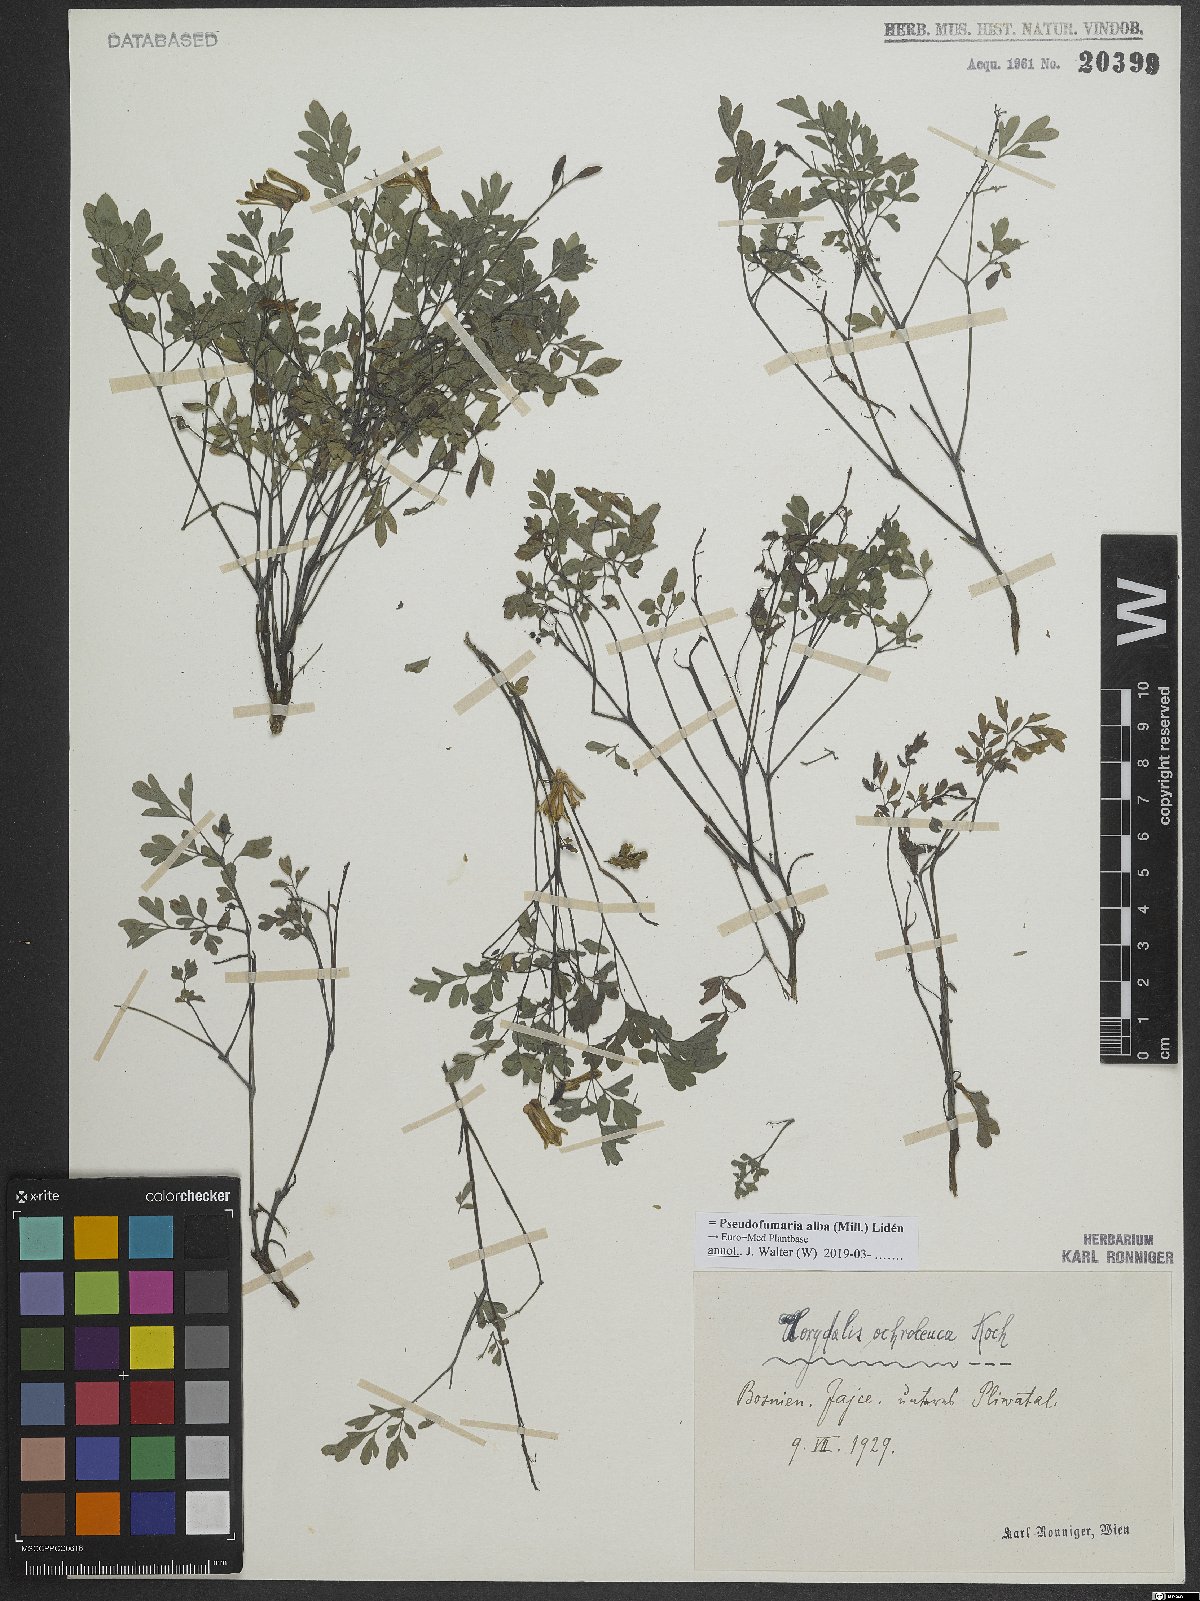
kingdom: Plantae
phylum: Tracheophyta
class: Magnoliopsida
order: Ranunculales
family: Papaveraceae
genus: Pseudofumaria
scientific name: Pseudofumaria alba
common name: Pale corydalis
